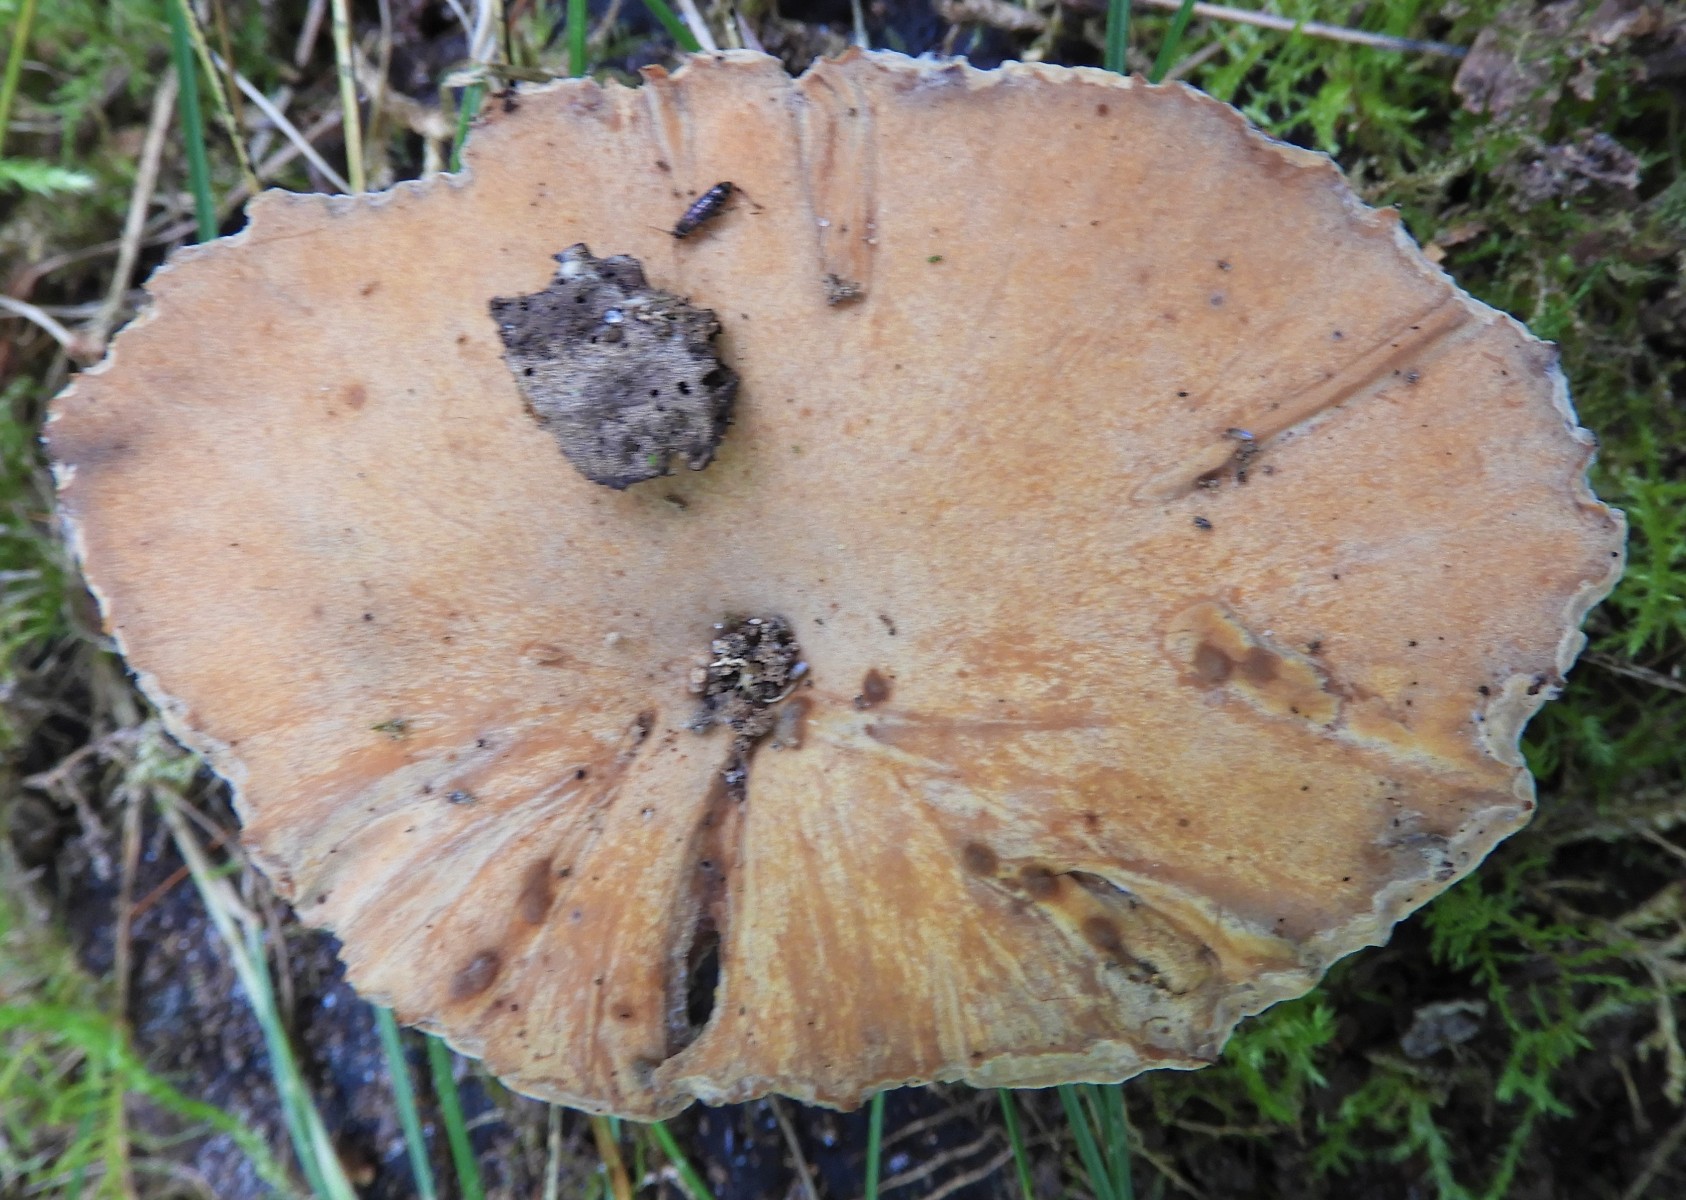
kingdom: Fungi
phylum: Basidiomycota
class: Agaricomycetes
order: Polyporales
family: Polyporaceae
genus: Cerioporus
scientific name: Cerioporus varius
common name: foranderlig stilkporesvamp
